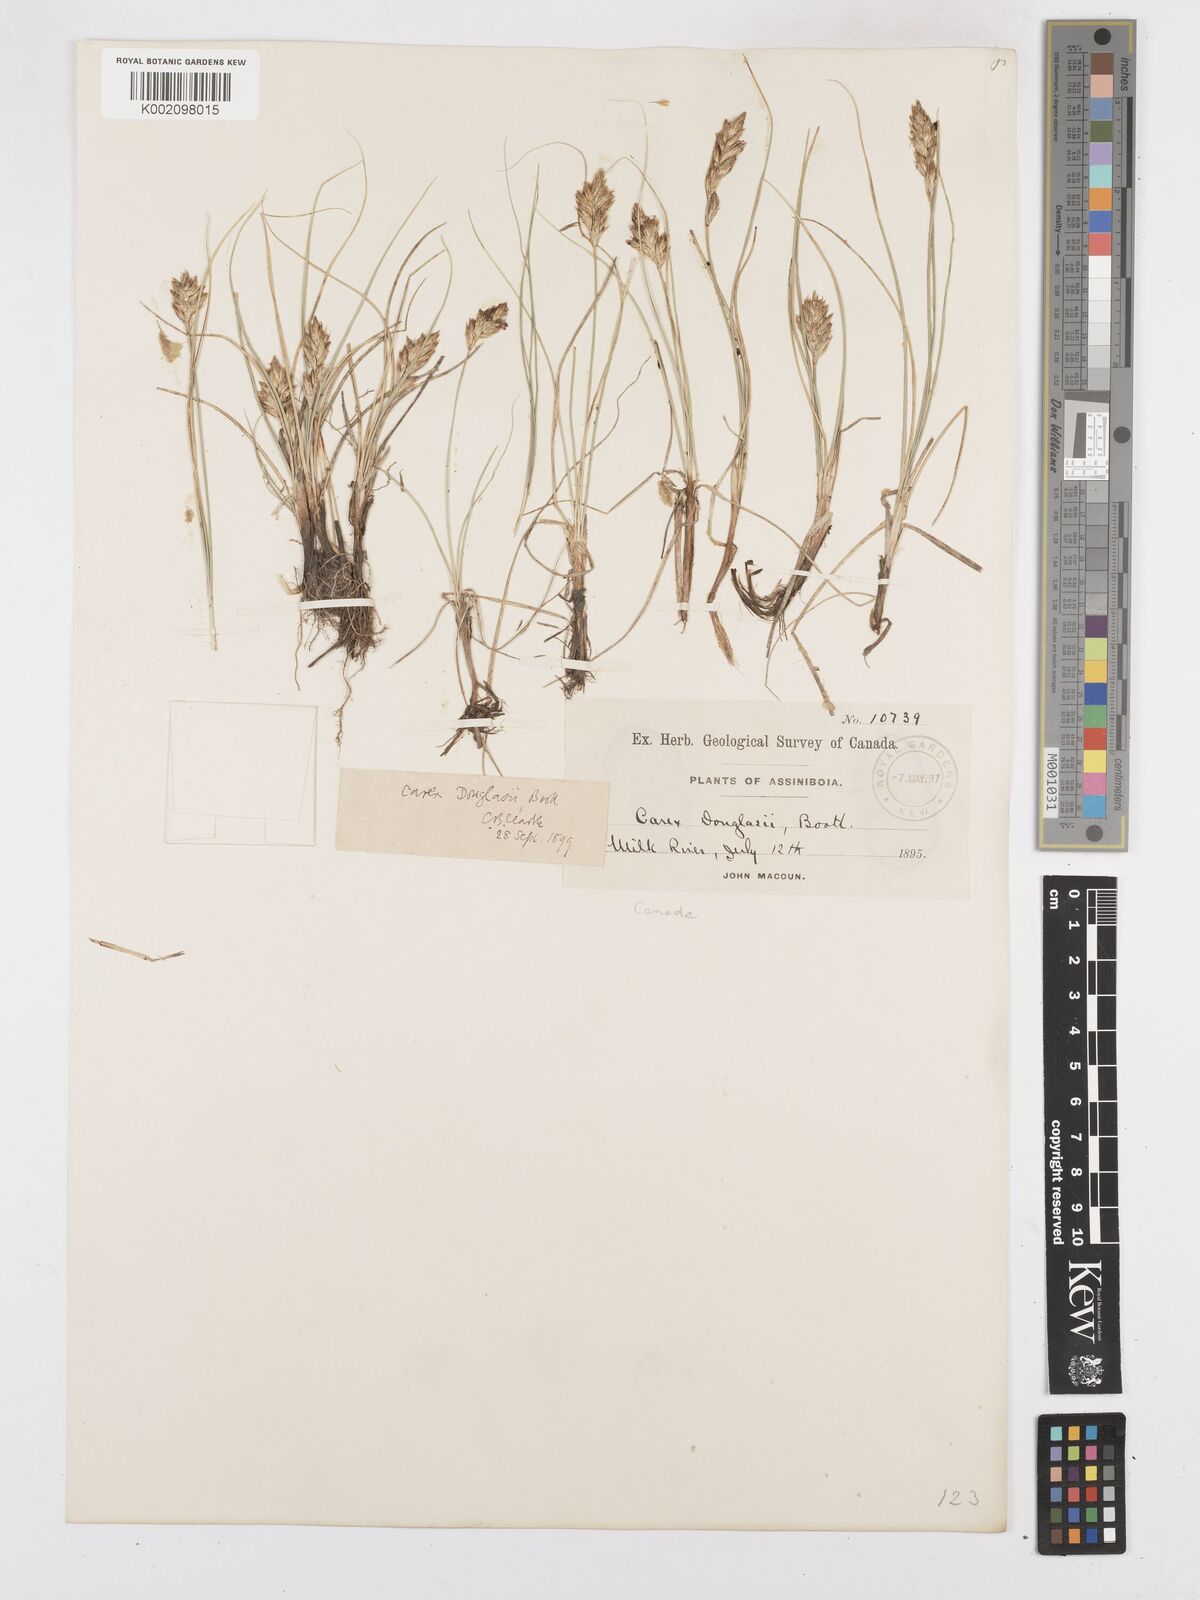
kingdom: Plantae
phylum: Tracheophyta
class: Liliopsida
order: Poales
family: Cyperaceae
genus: Carex
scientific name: Carex douglasii
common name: Douglas' sedge
